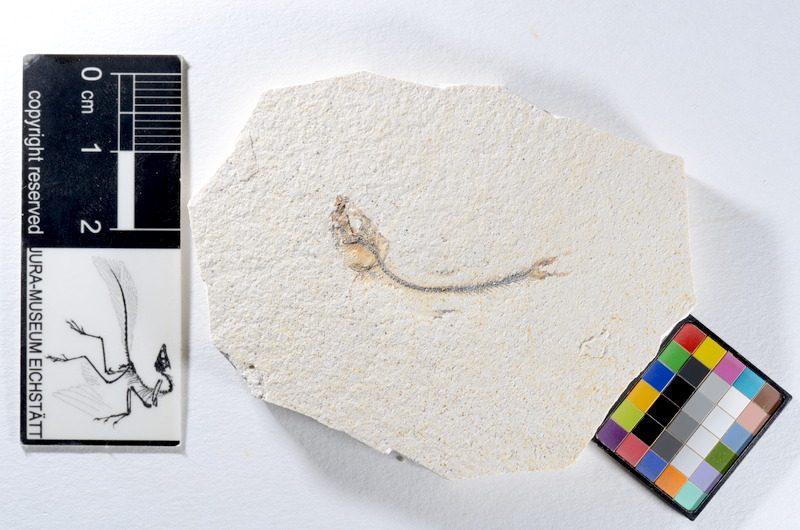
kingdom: Animalia
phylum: Chordata
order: Salmoniformes
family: Orthogonikleithridae
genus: Orthogonikleithrus
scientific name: Orthogonikleithrus hoelli
